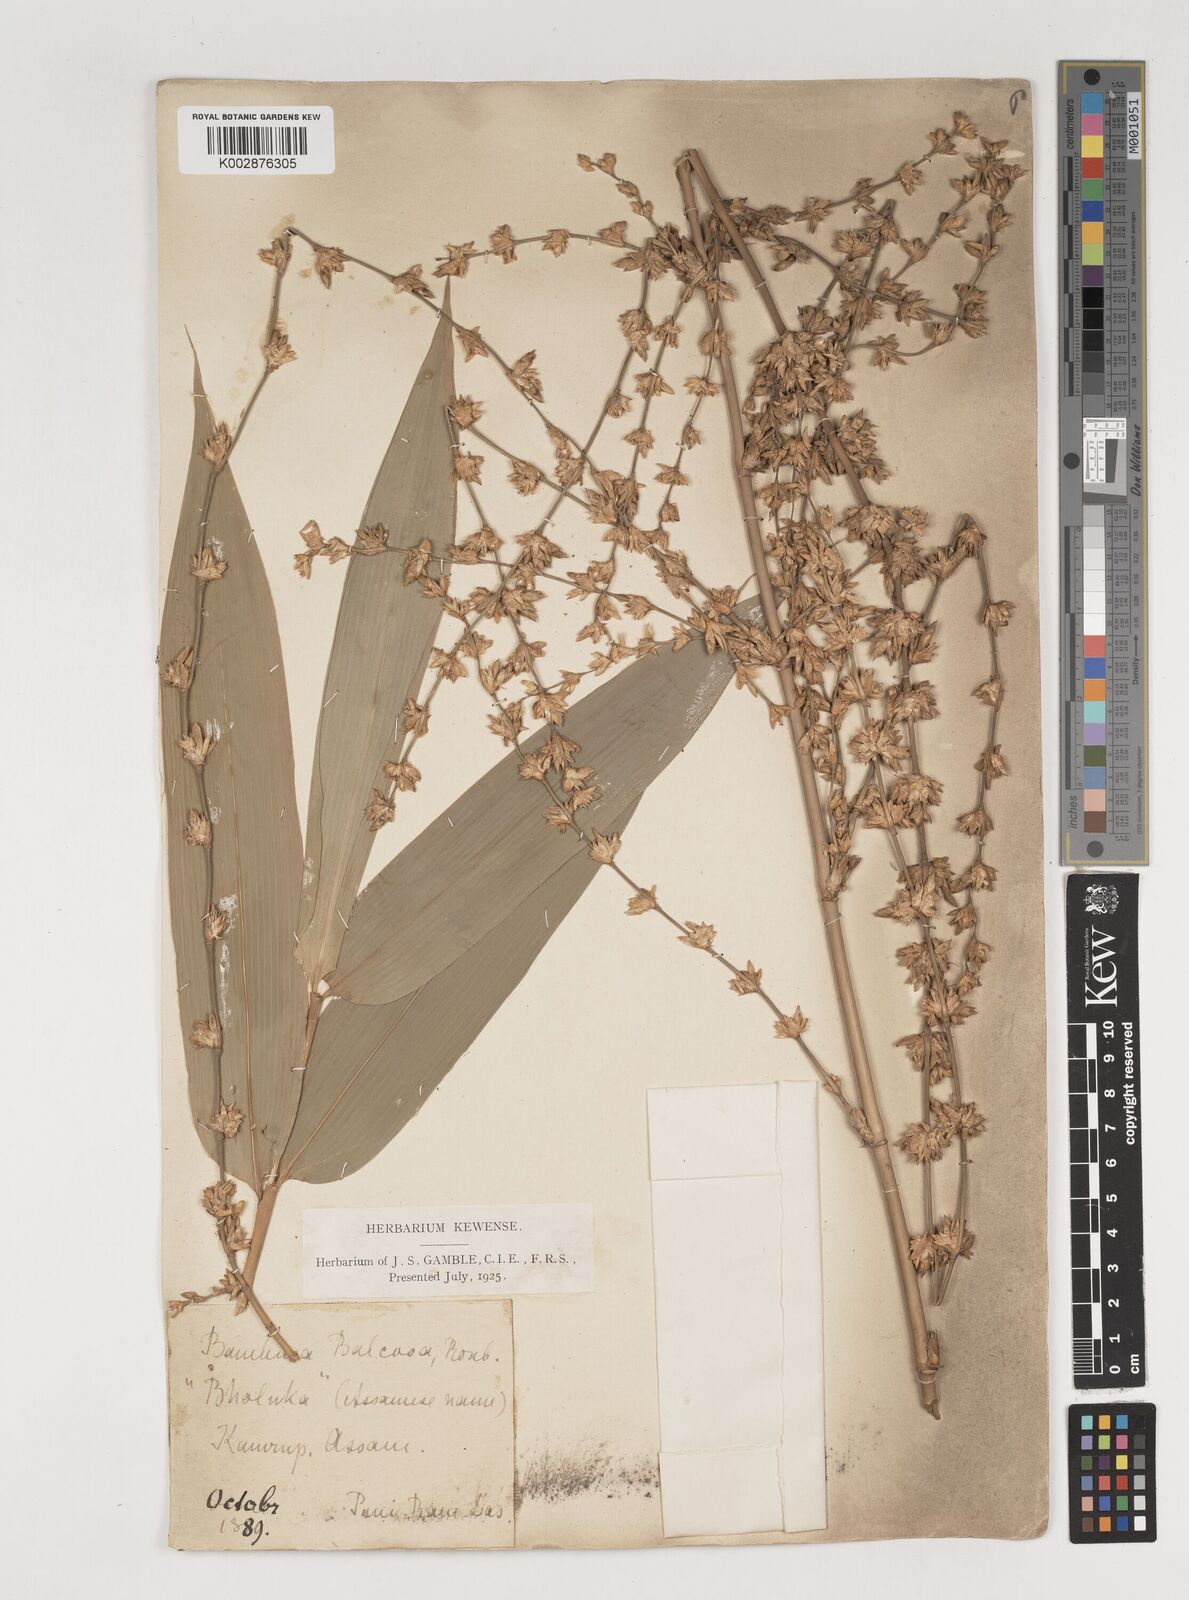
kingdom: Plantae
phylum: Tracheophyta
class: Liliopsida
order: Poales
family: Poaceae
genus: Bambusa
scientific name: Bambusa balcooa
